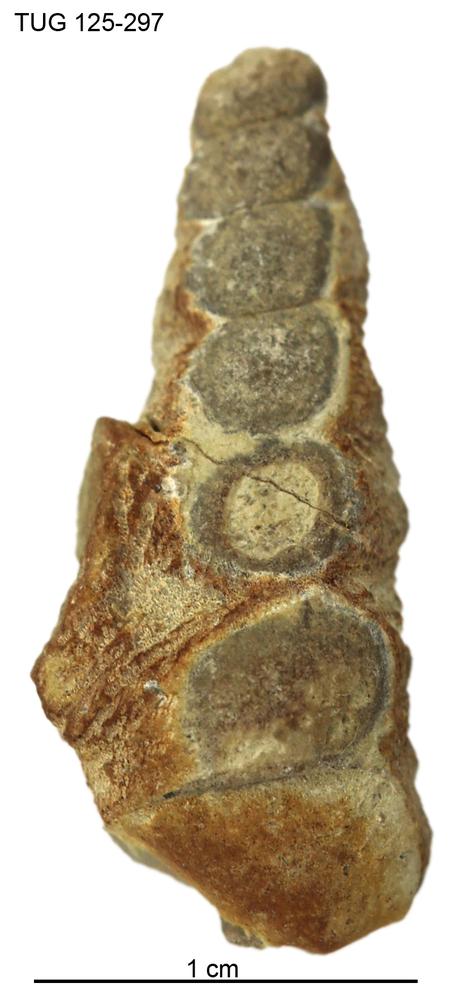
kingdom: Animalia
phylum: Mollusca
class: Gastropoda
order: Pleurotomariida
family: Murchisoniidae
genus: Hormotoma
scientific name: Hormotoma
